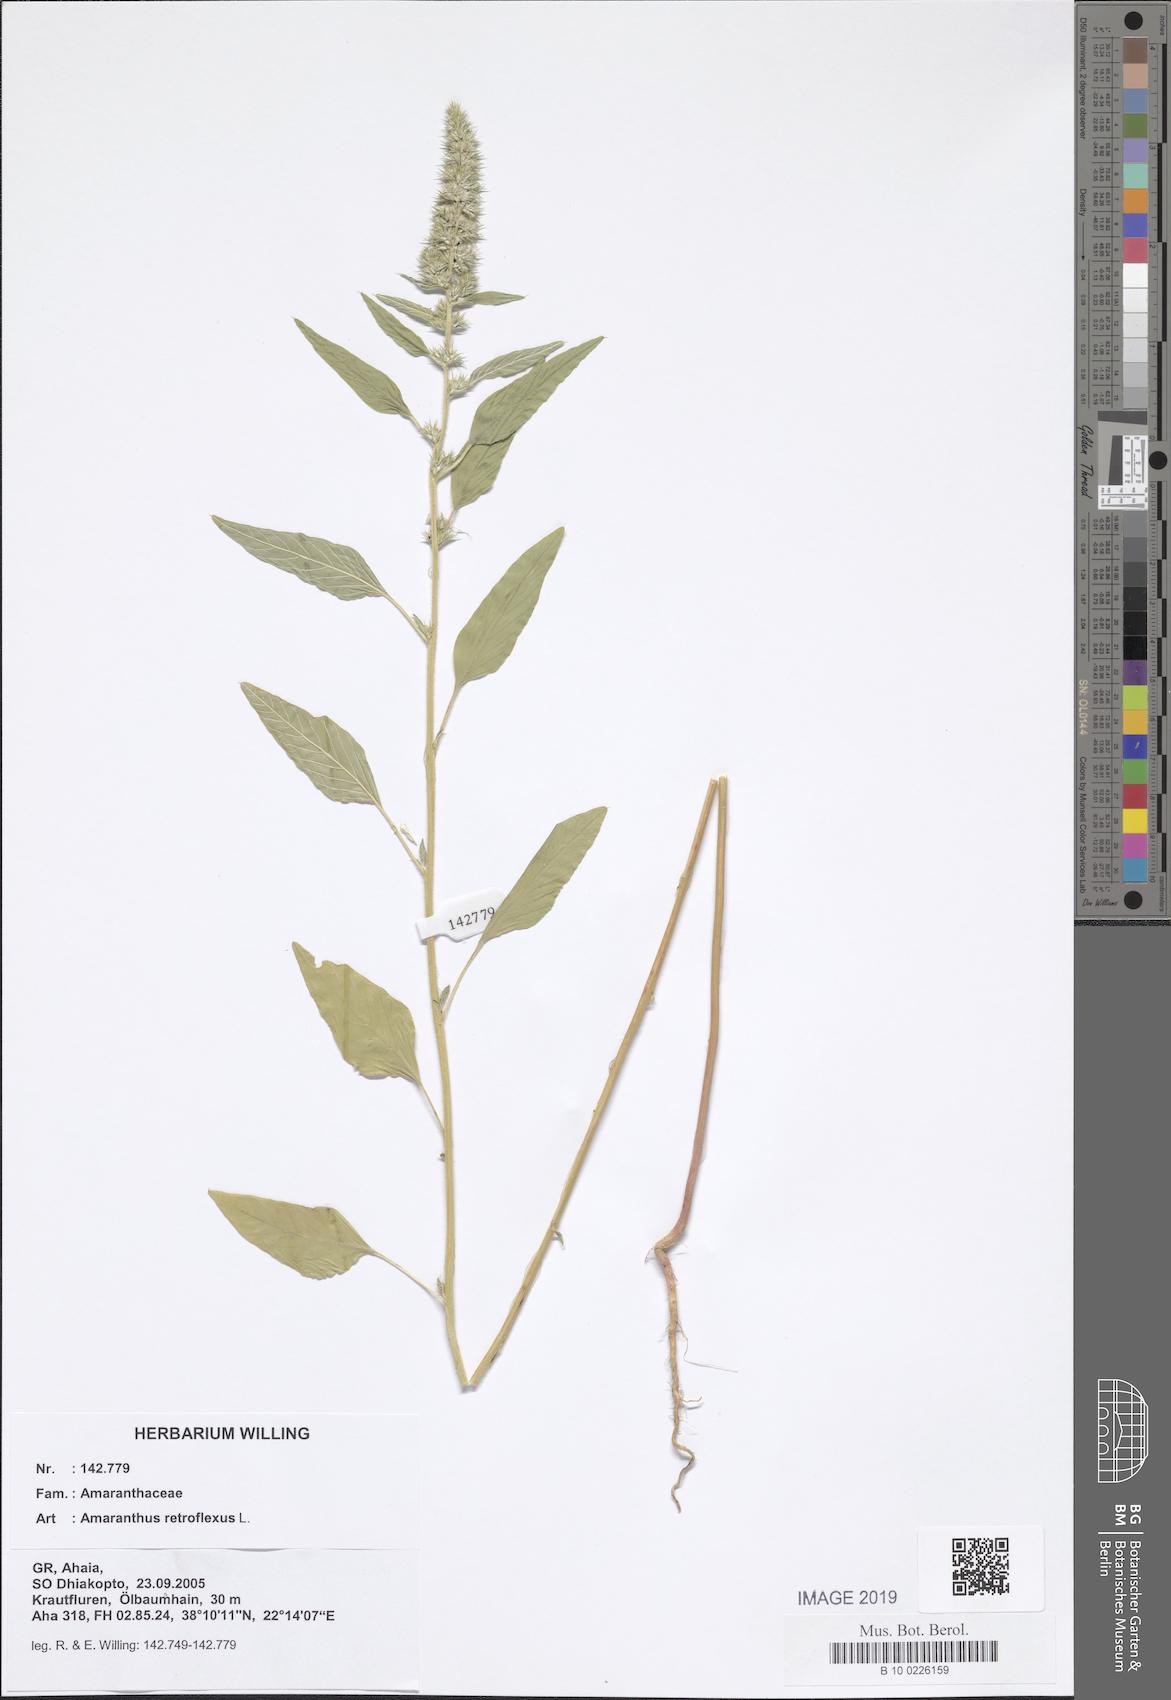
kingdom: Plantae
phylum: Tracheophyta
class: Magnoliopsida
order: Caryophyllales
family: Amaranthaceae
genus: Amaranthus
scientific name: Amaranthus retroflexus
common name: Redroot amaranth
